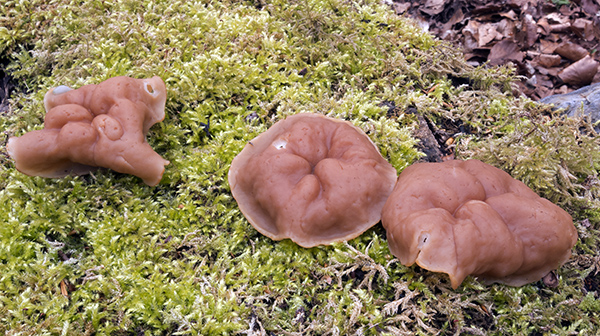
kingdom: Fungi
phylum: Ascomycota
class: Pezizomycetes
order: Pezizales
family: Discinaceae
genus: Gyromitra
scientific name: Gyromitra parma
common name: flad stenmorkel
